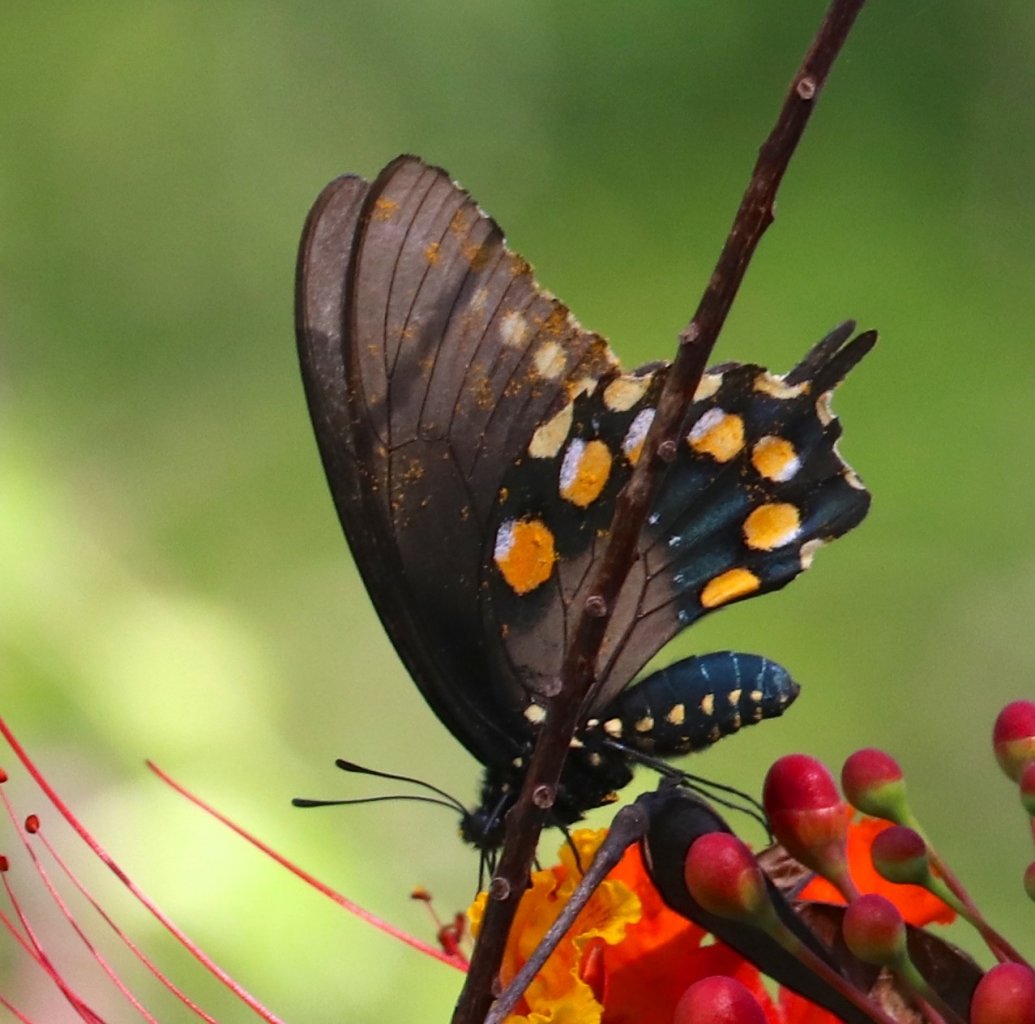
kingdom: Animalia
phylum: Arthropoda
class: Insecta
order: Lepidoptera
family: Papilionidae
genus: Battus
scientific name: Battus philenor
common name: Pipevine Swallowtail
